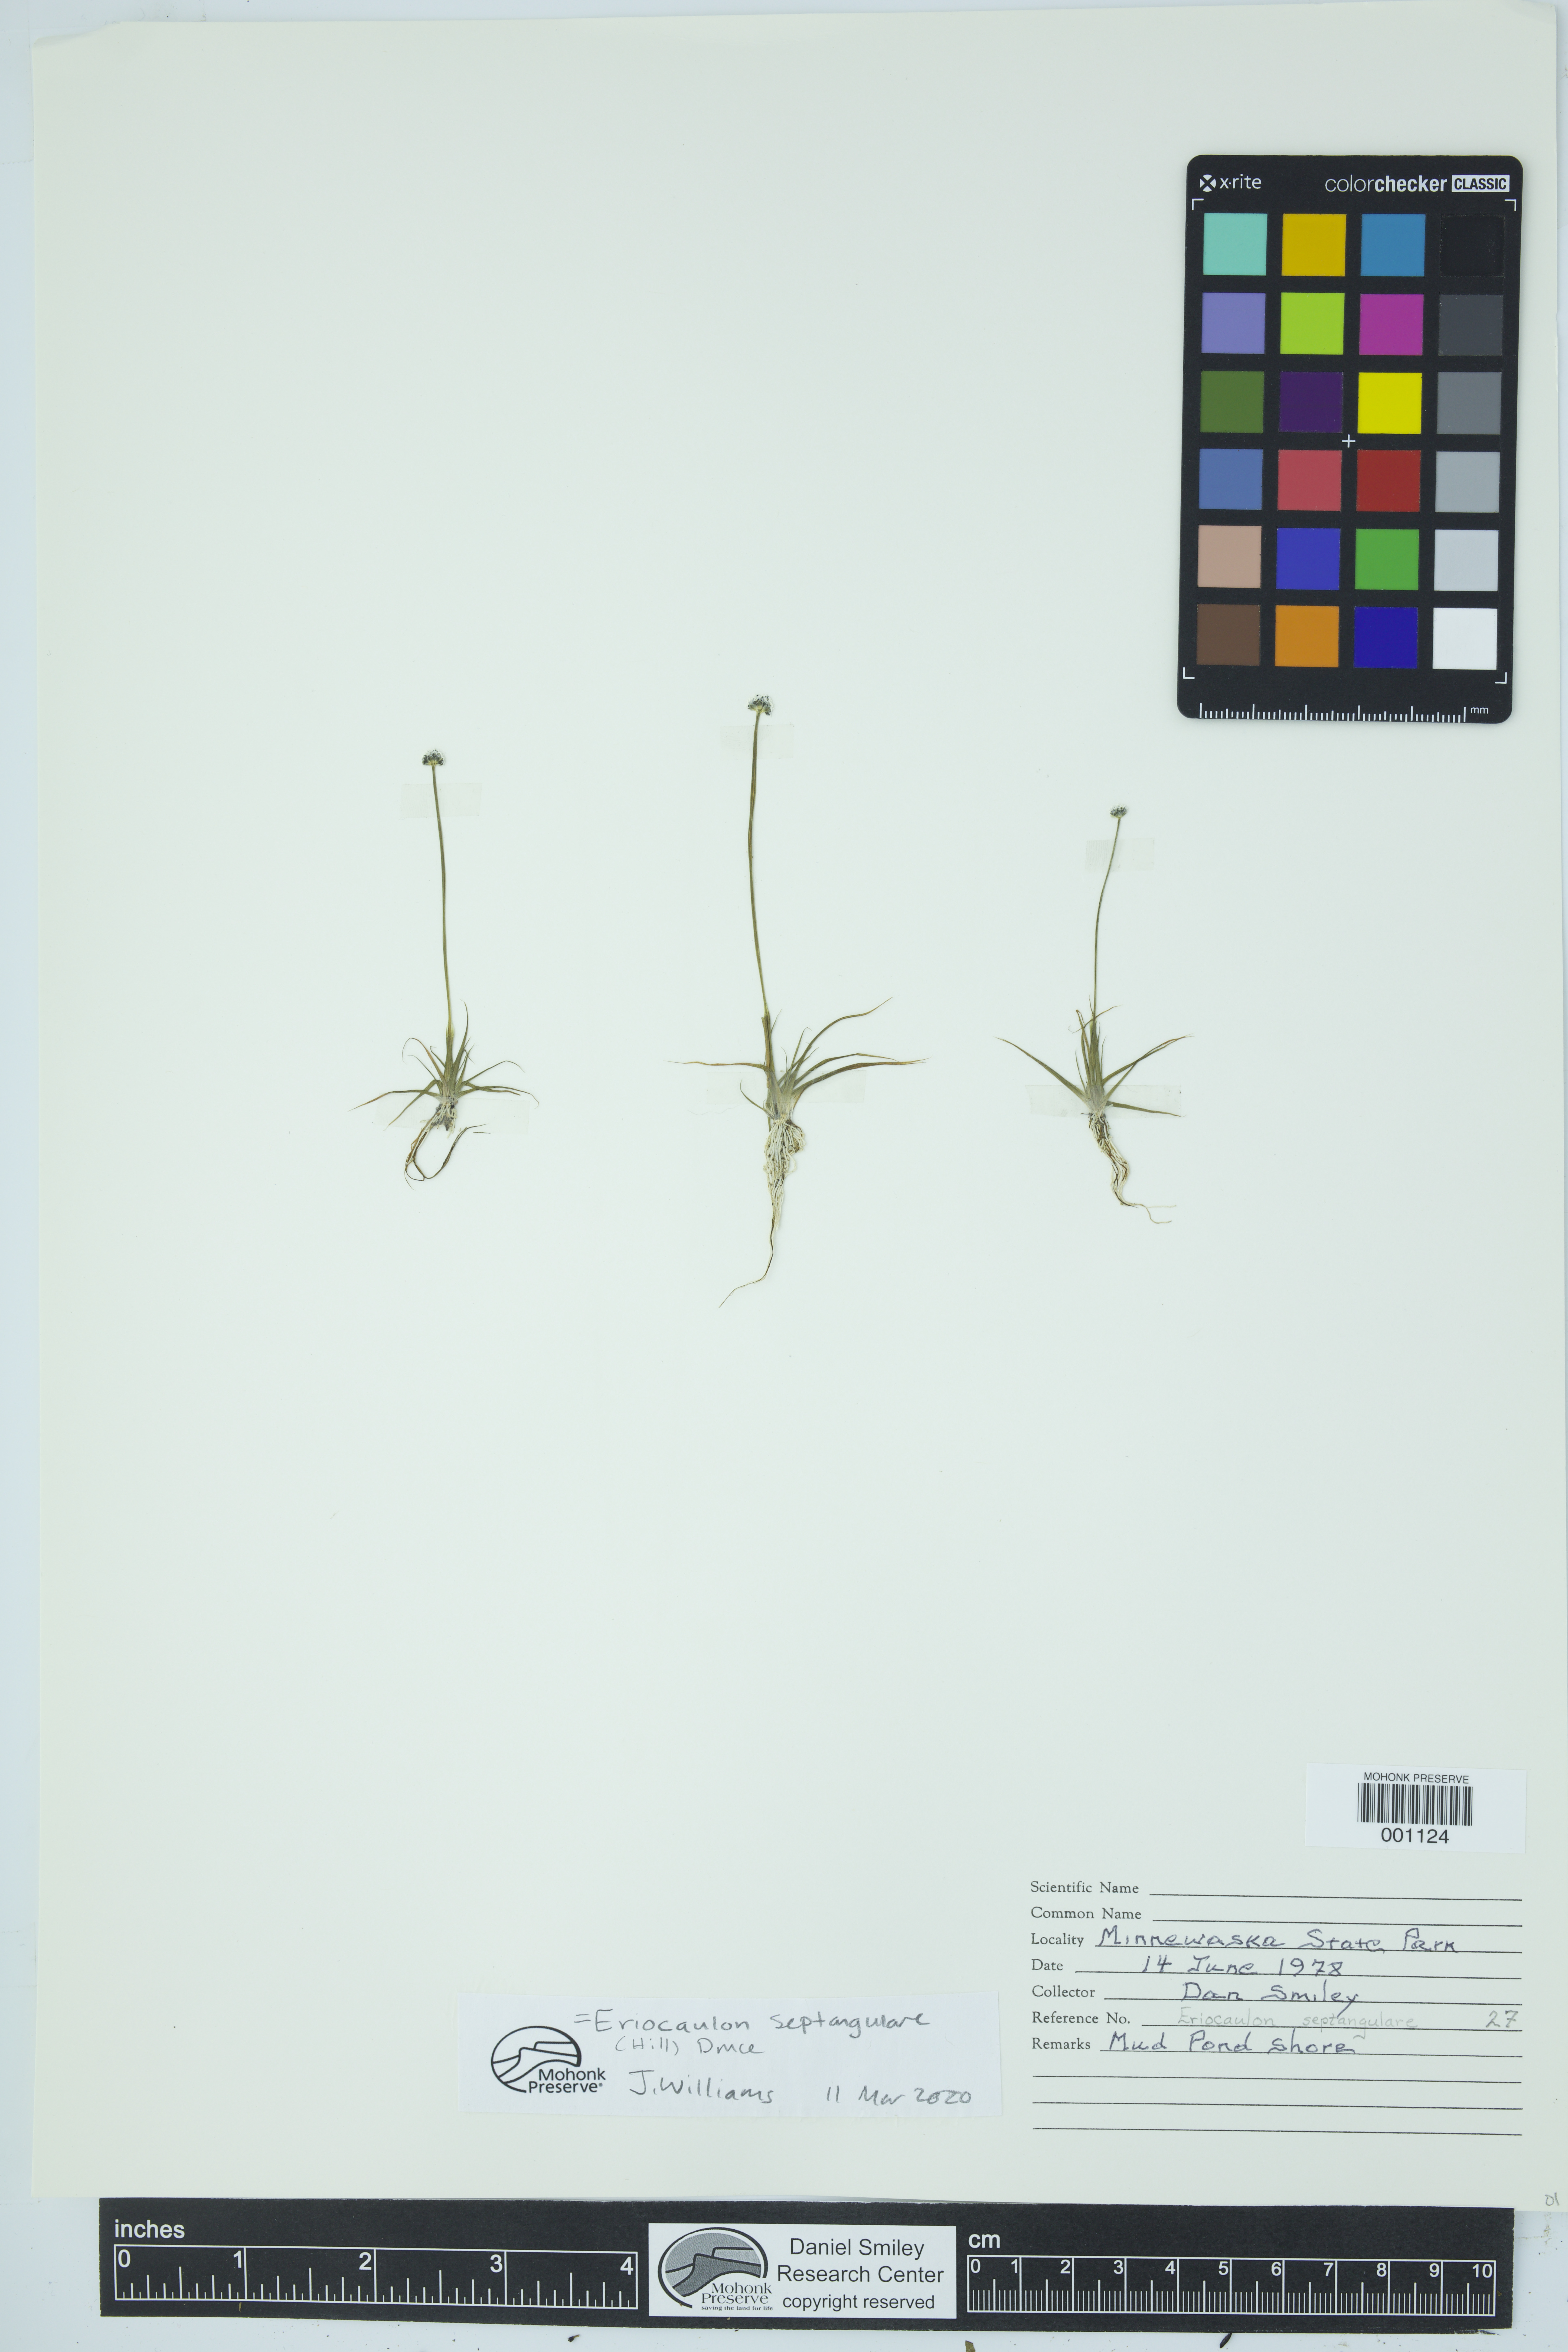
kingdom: Plantae
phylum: Tracheophyta
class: Liliopsida
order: Poales
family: Eriocaulaceae
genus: Eriocaulon
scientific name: Eriocaulon aquaticum
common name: Pipewort
